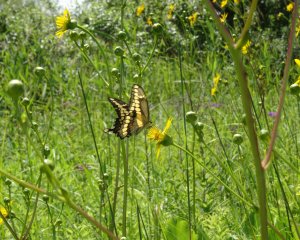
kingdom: Animalia
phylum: Arthropoda
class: Insecta
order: Lepidoptera
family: Papilionidae
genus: Papilio
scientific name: Papilio cresphontes
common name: Eastern Giant Swallowtail
